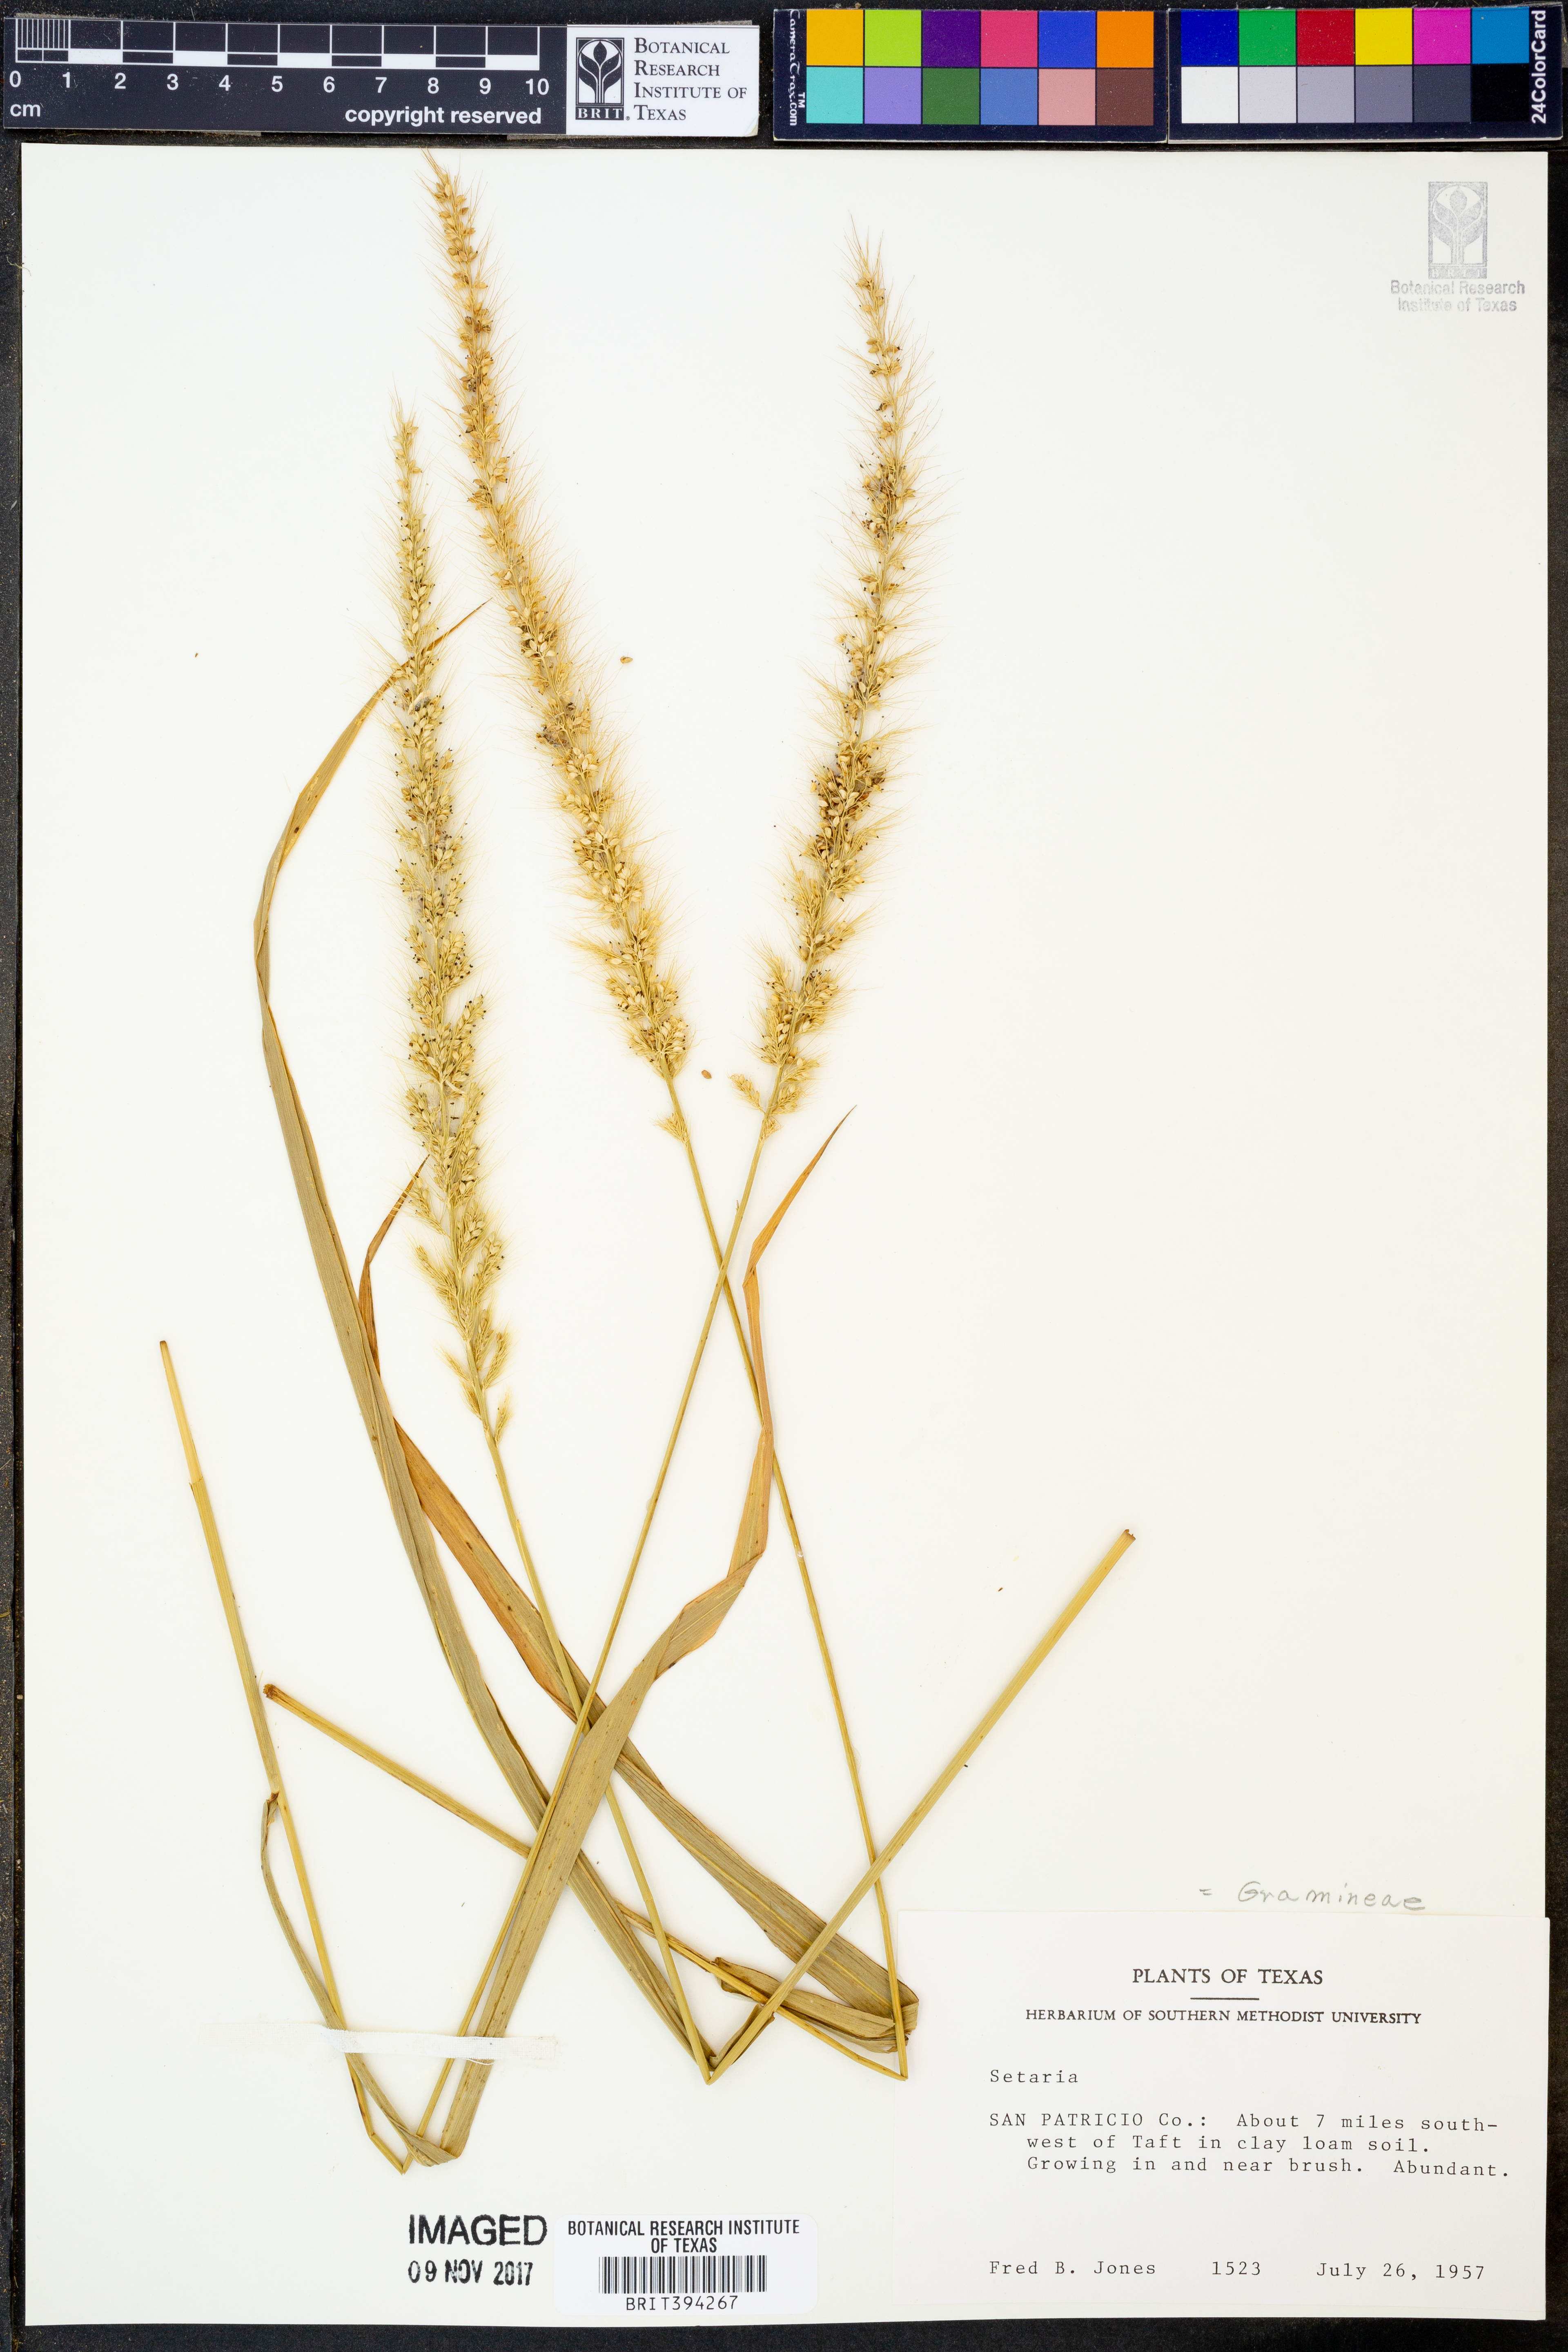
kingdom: Plantae
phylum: Tracheophyta
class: Liliopsida
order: Poales
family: Poaceae
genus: Setaria
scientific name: Setaria
